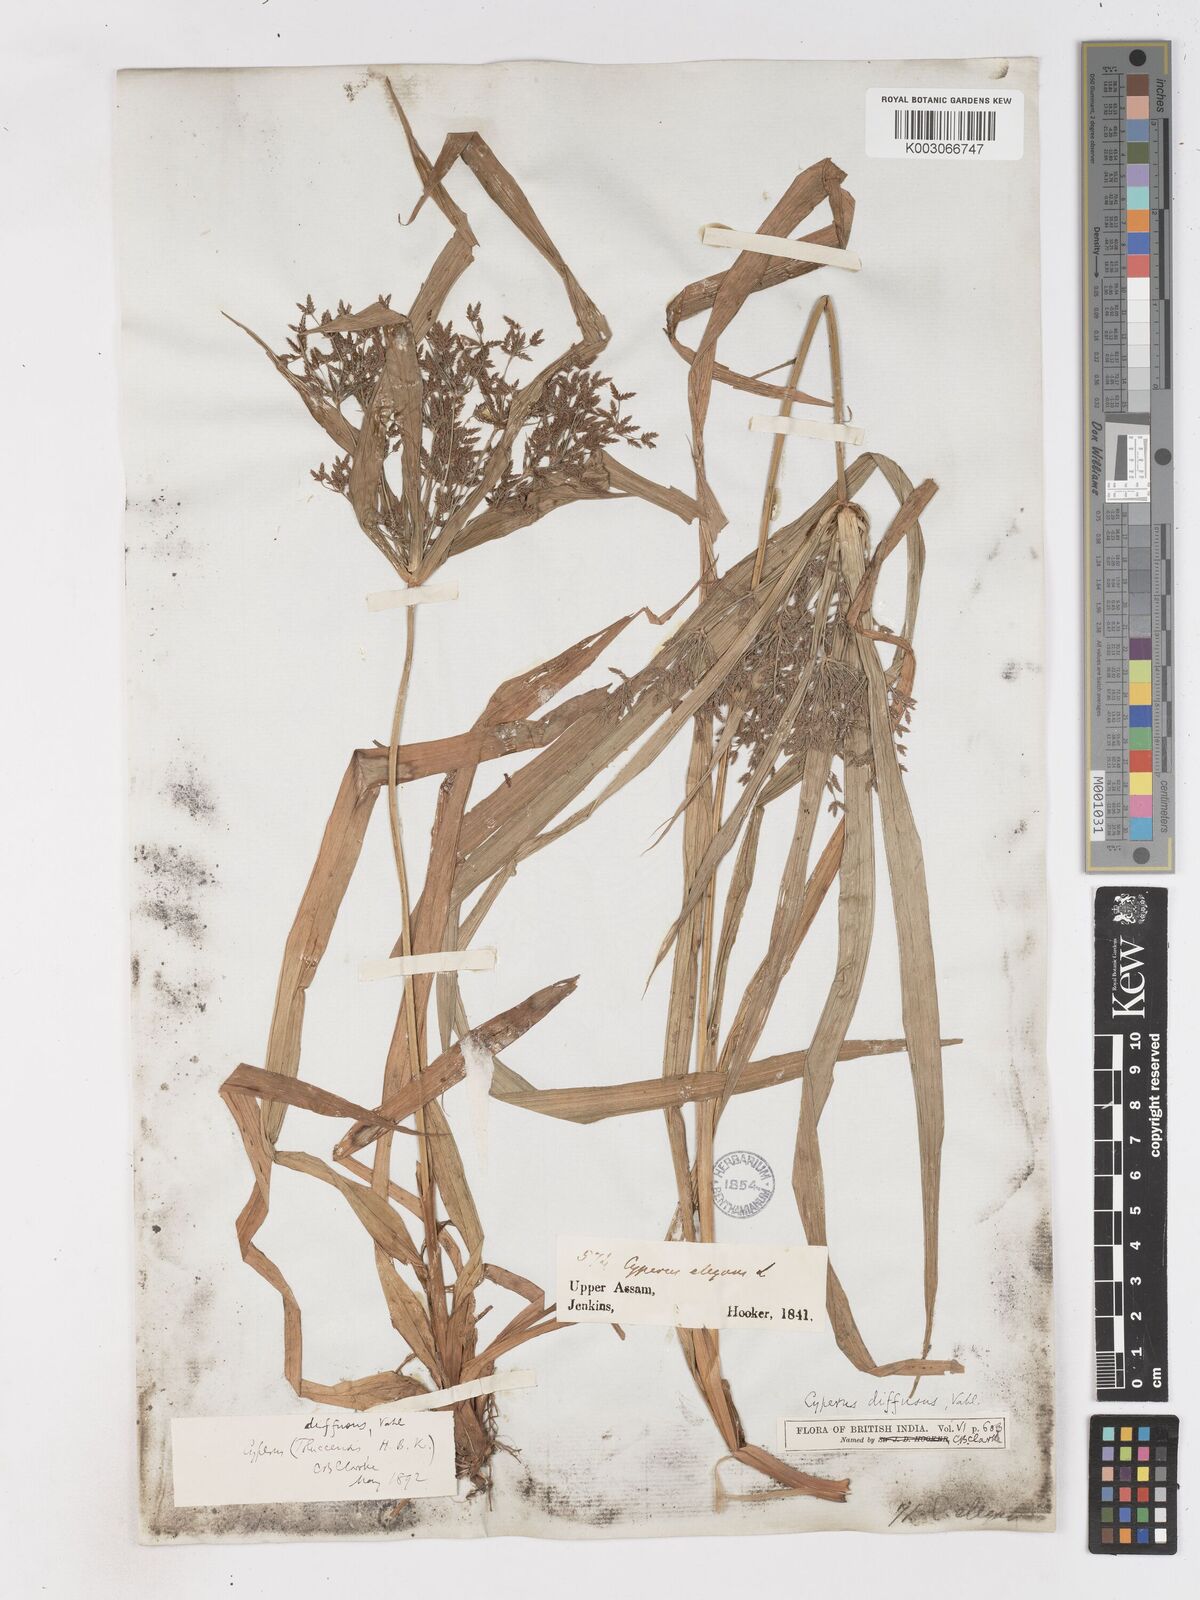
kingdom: Plantae
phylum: Tracheophyta
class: Liliopsida
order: Poales
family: Cyperaceae
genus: Cyperus
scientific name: Cyperus diffusus
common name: Dwarf umbrella grass
